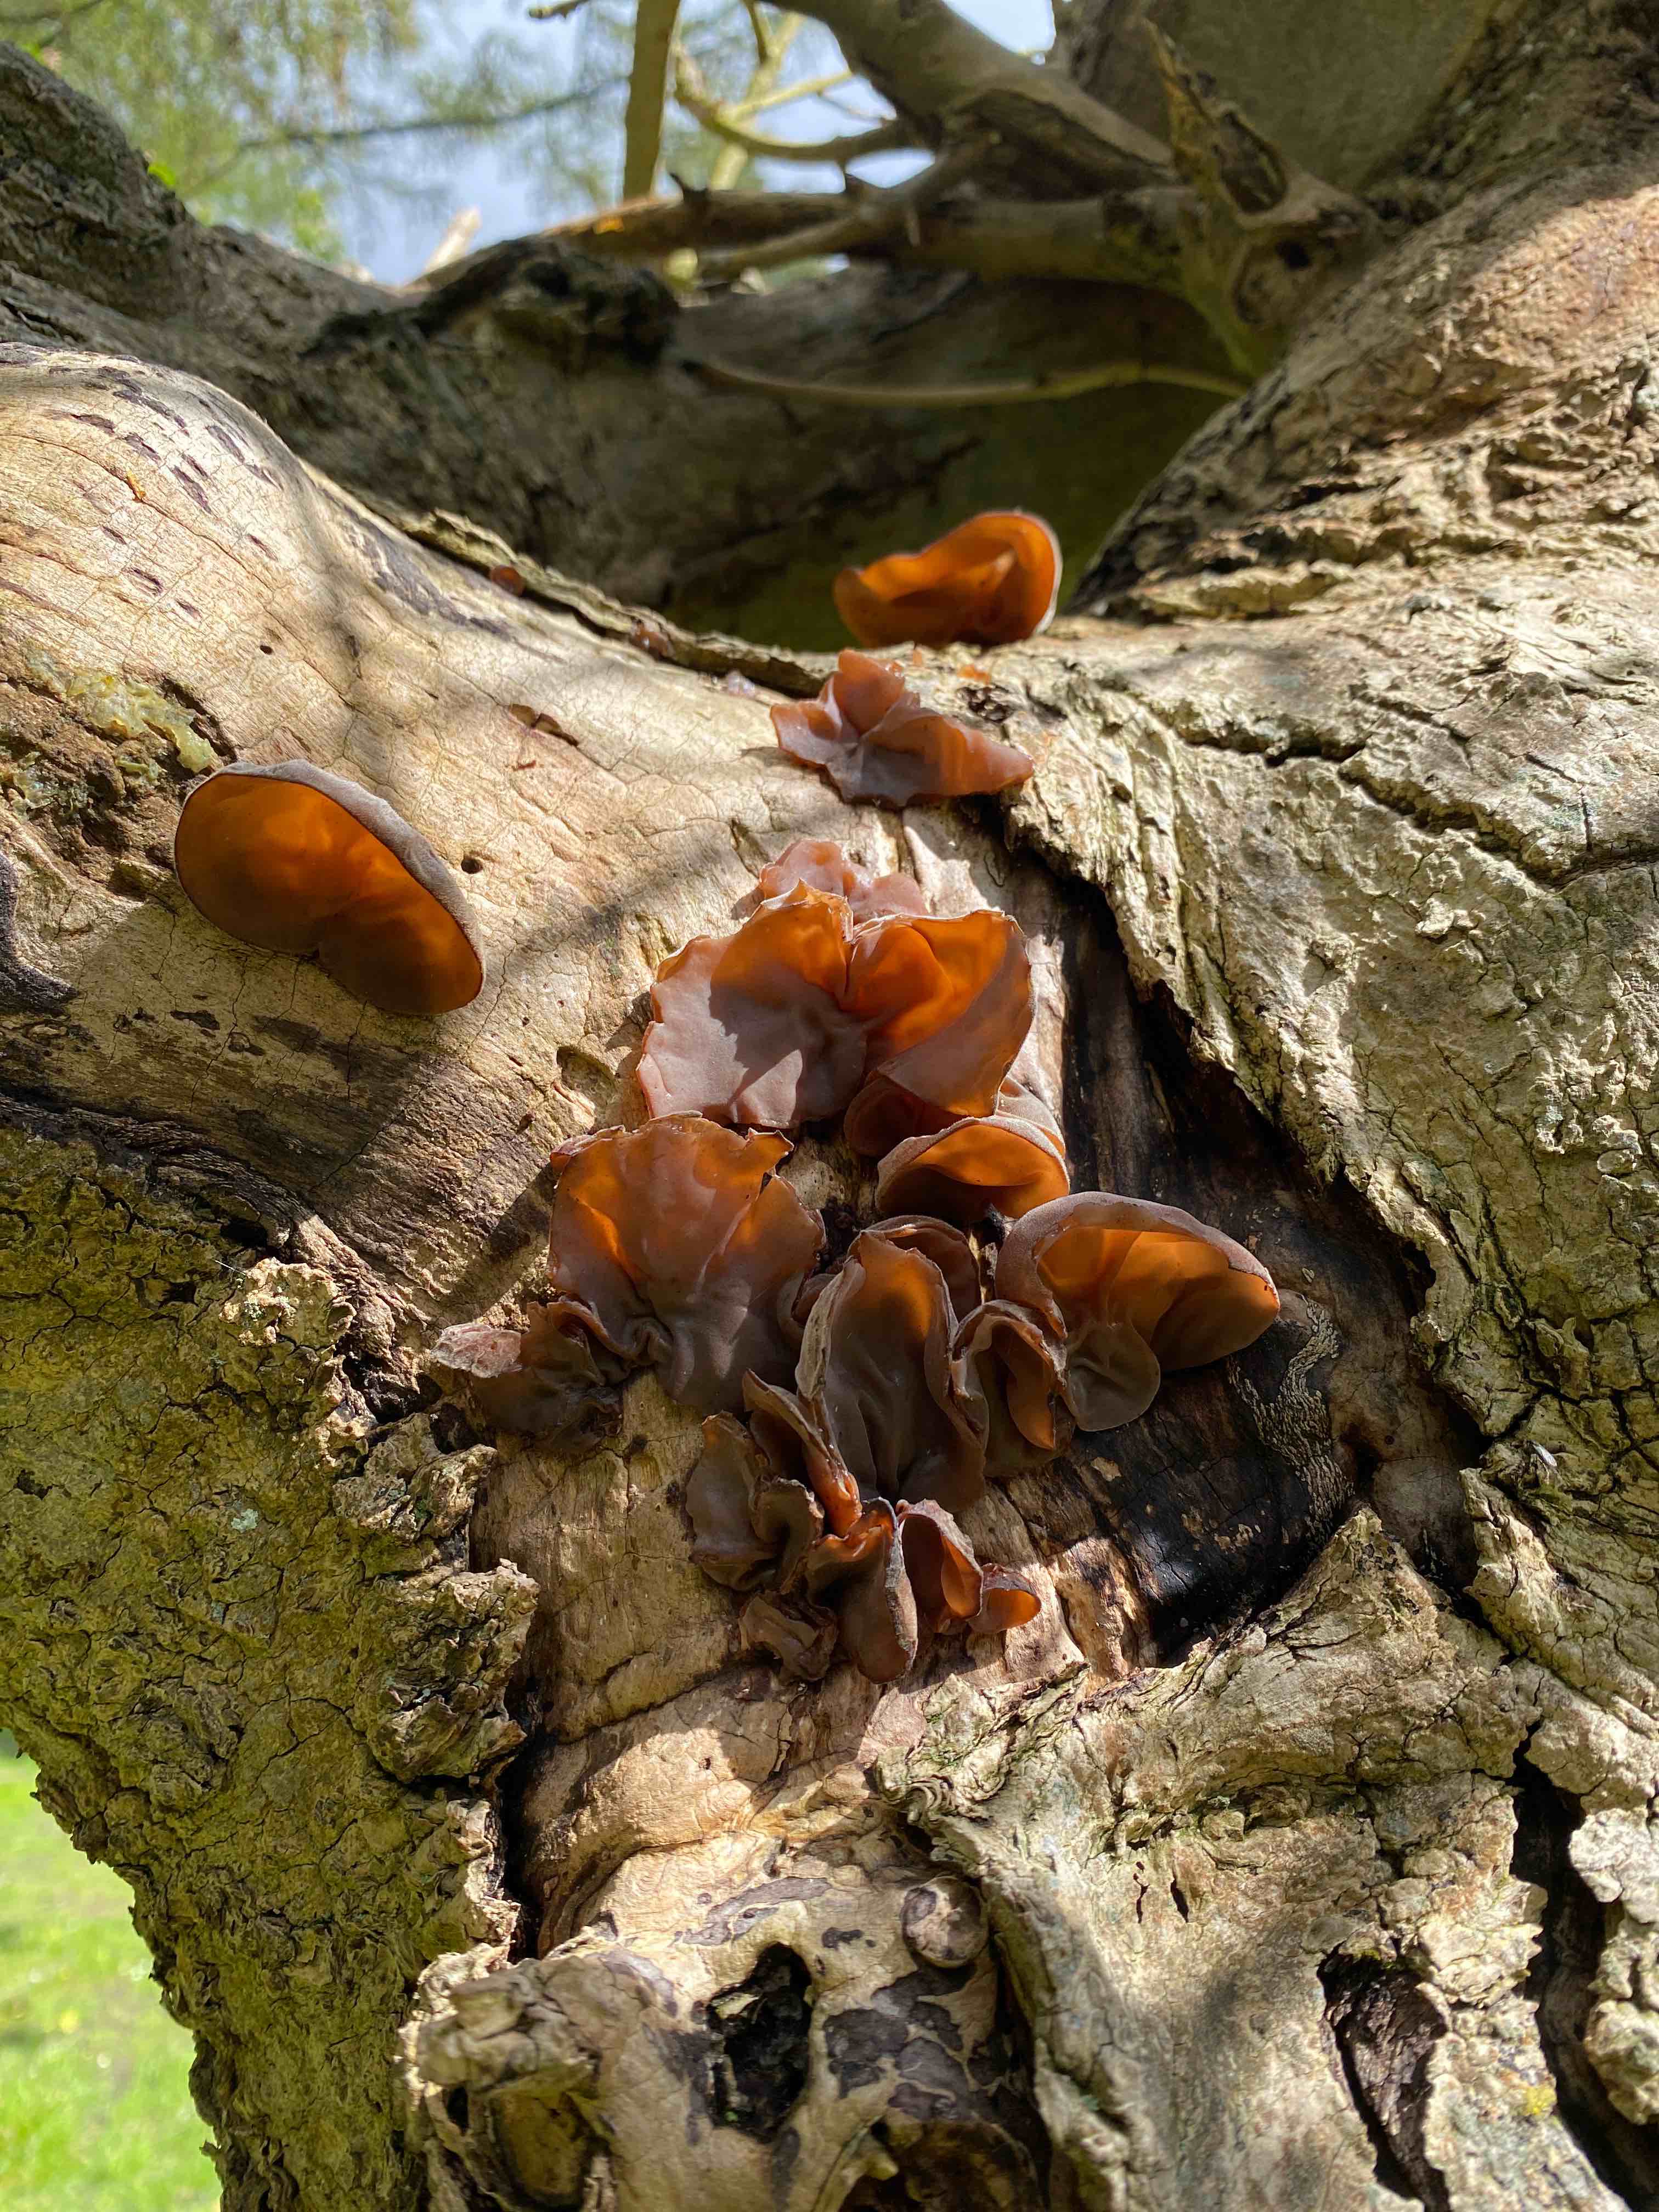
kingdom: Fungi
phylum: Basidiomycota
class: Agaricomycetes
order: Auriculariales
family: Auriculariaceae
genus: Auricularia
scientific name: Auricularia auricula-judae
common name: almindelig judasøre
